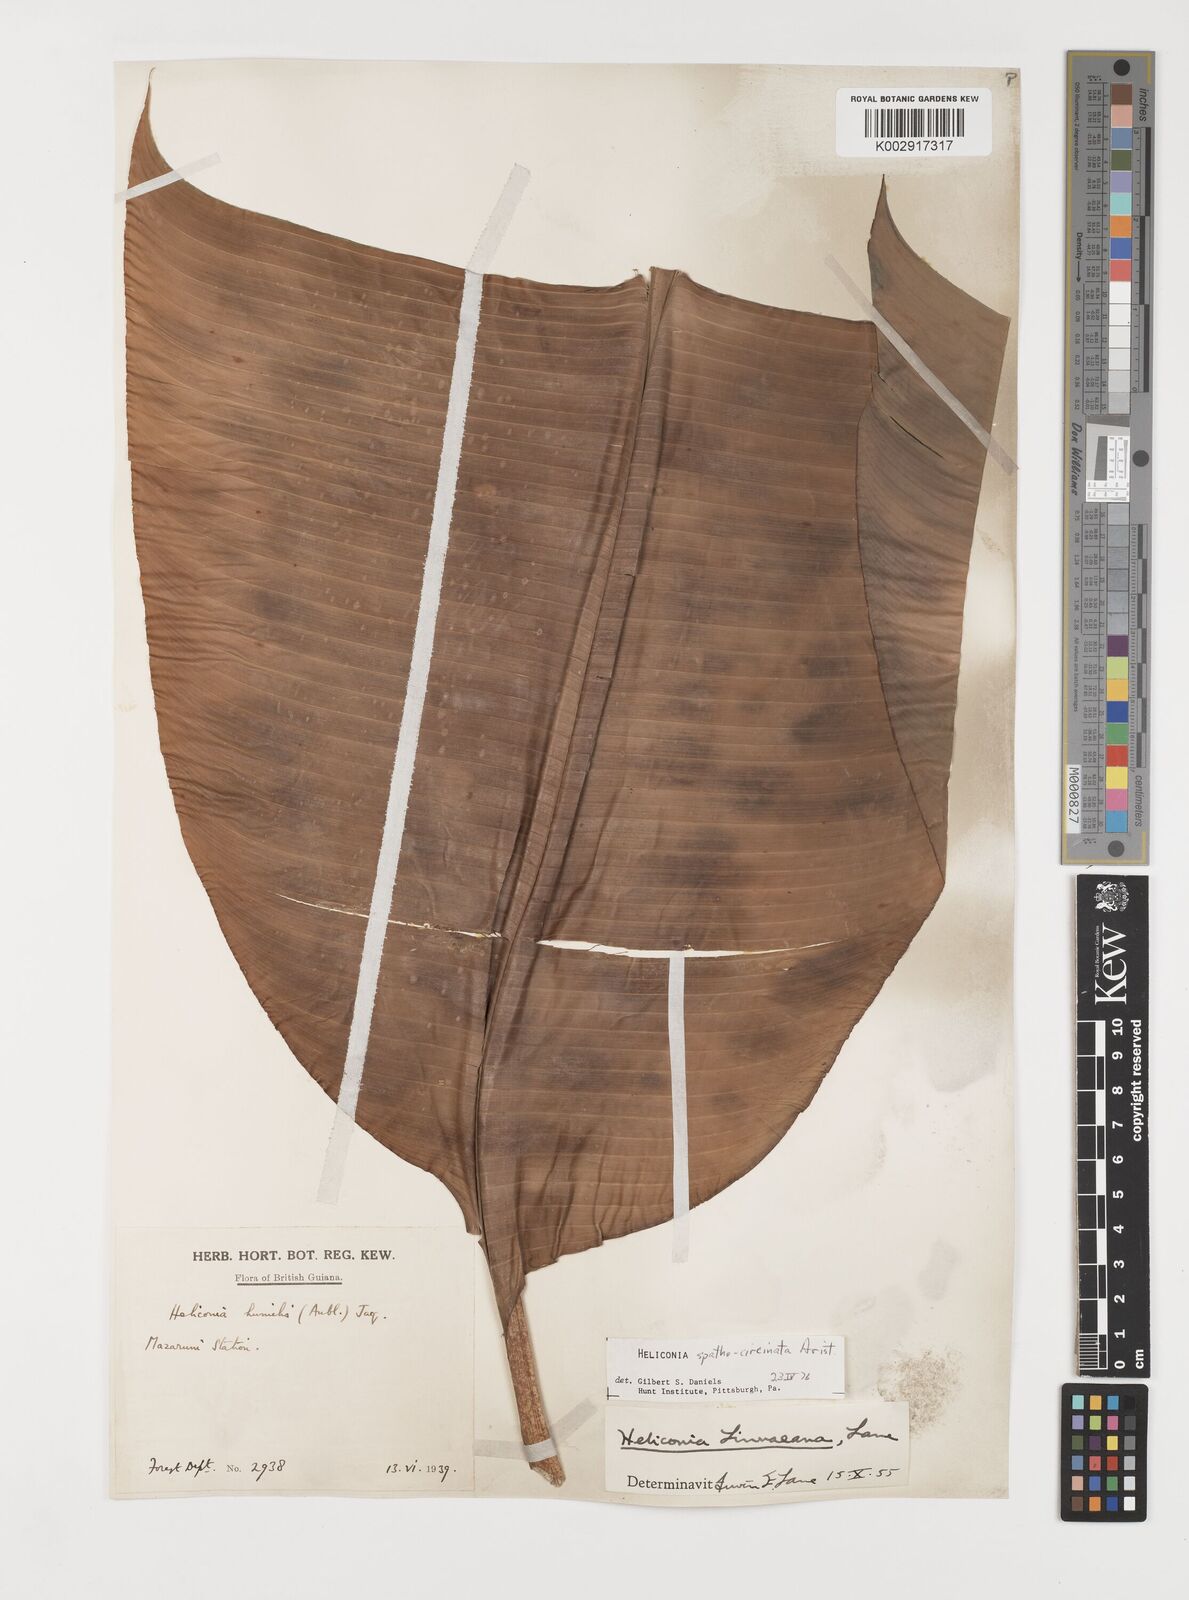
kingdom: Plantae
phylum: Tracheophyta
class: Liliopsida
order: Zingiberales
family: Heliconiaceae
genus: Heliconia
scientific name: Heliconia spathocircinata
